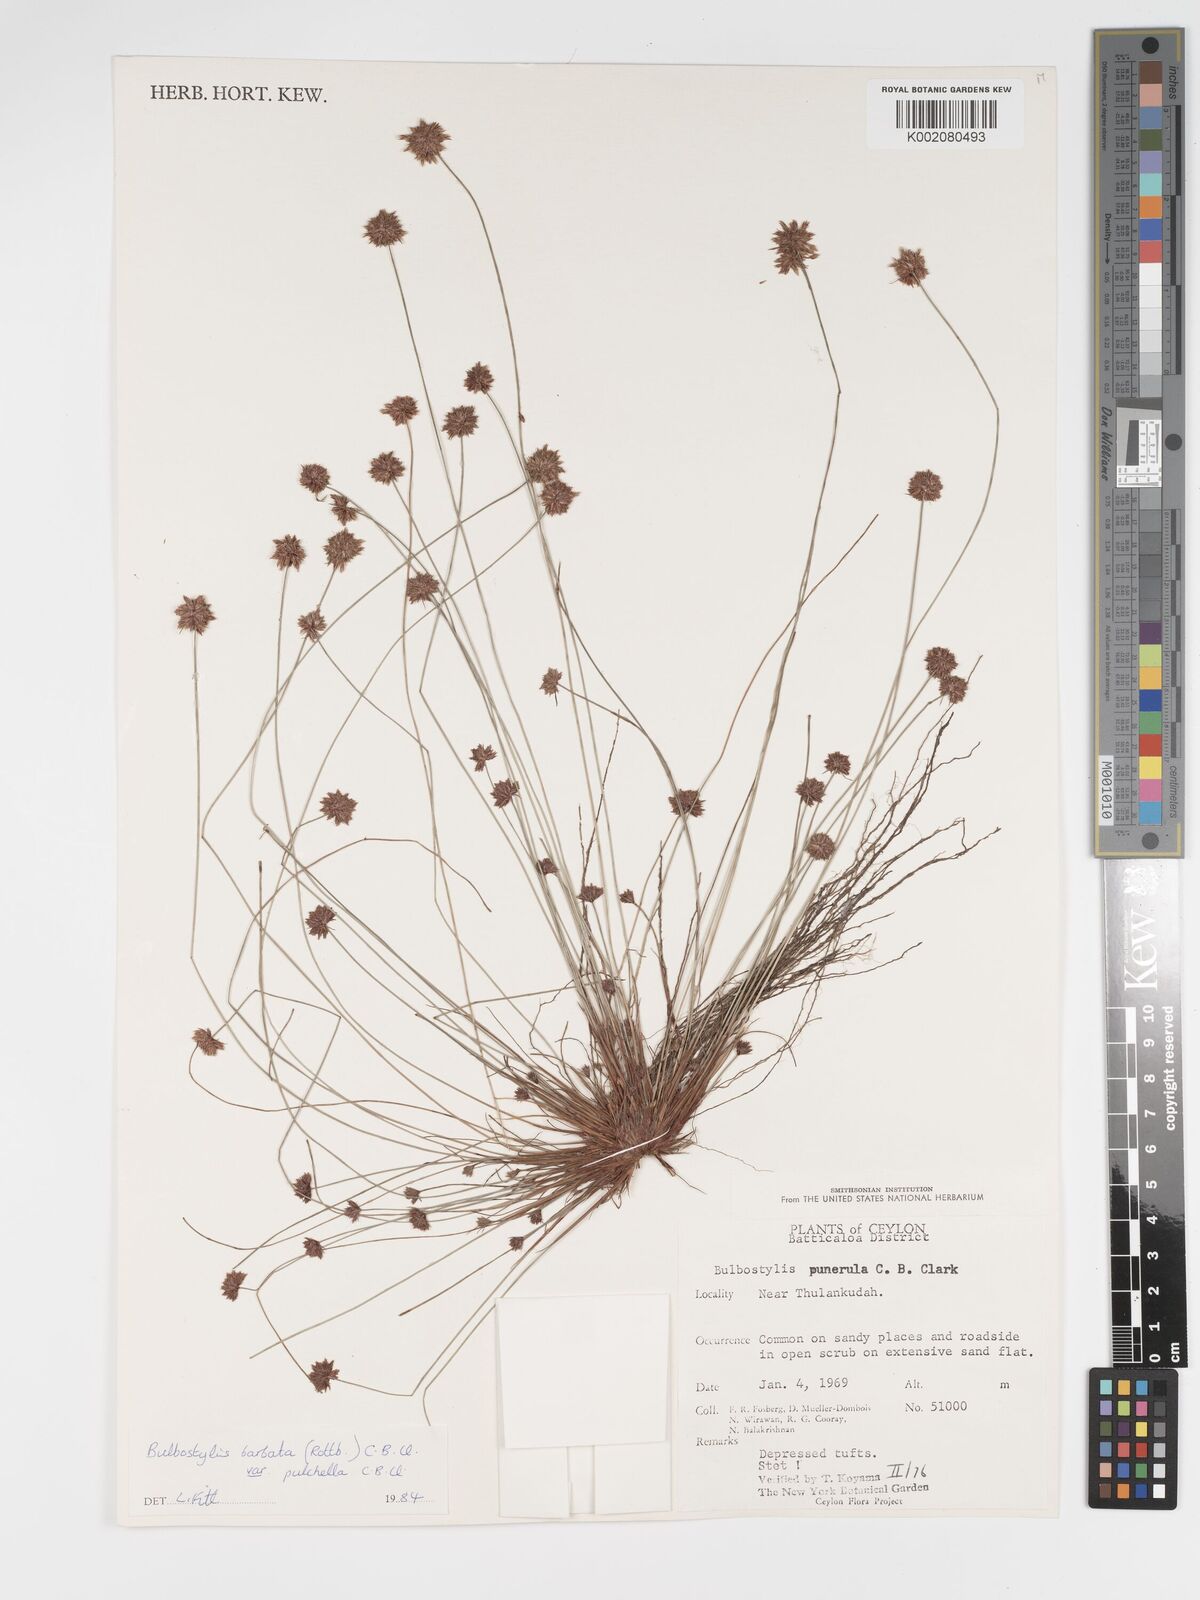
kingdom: Plantae
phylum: Tracheophyta
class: Liliopsida
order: Poales
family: Cyperaceae
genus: Bulbostylis
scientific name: Bulbostylis barbata
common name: Watergrass
